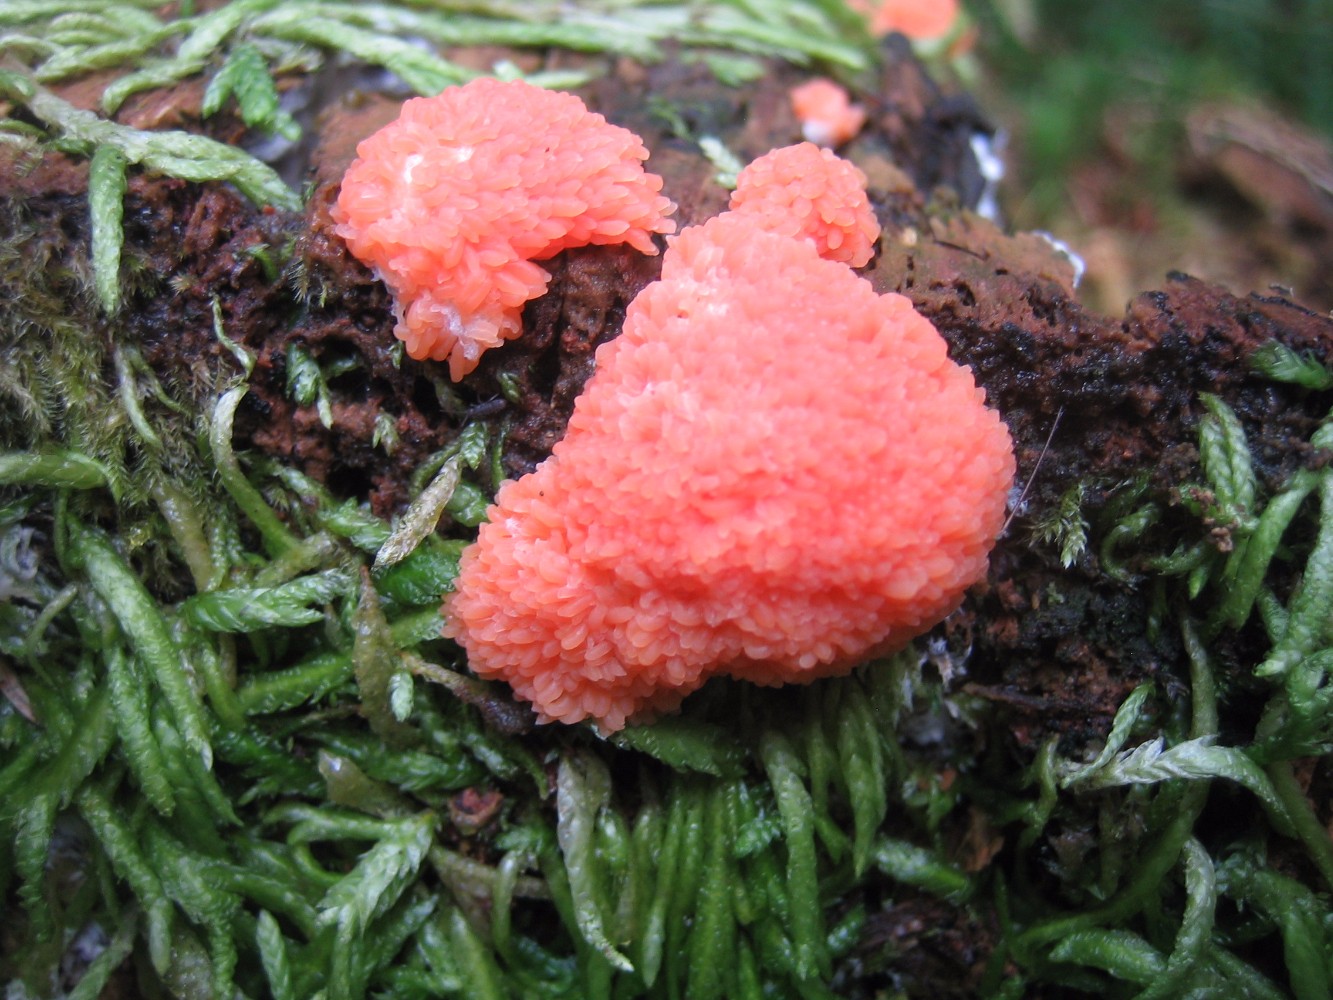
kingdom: Protozoa
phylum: Mycetozoa
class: Myxomycetes
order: Cribrariales
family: Tubiferaceae
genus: Tubifera
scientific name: Tubifera ferruginosa
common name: kanel-støvrør
